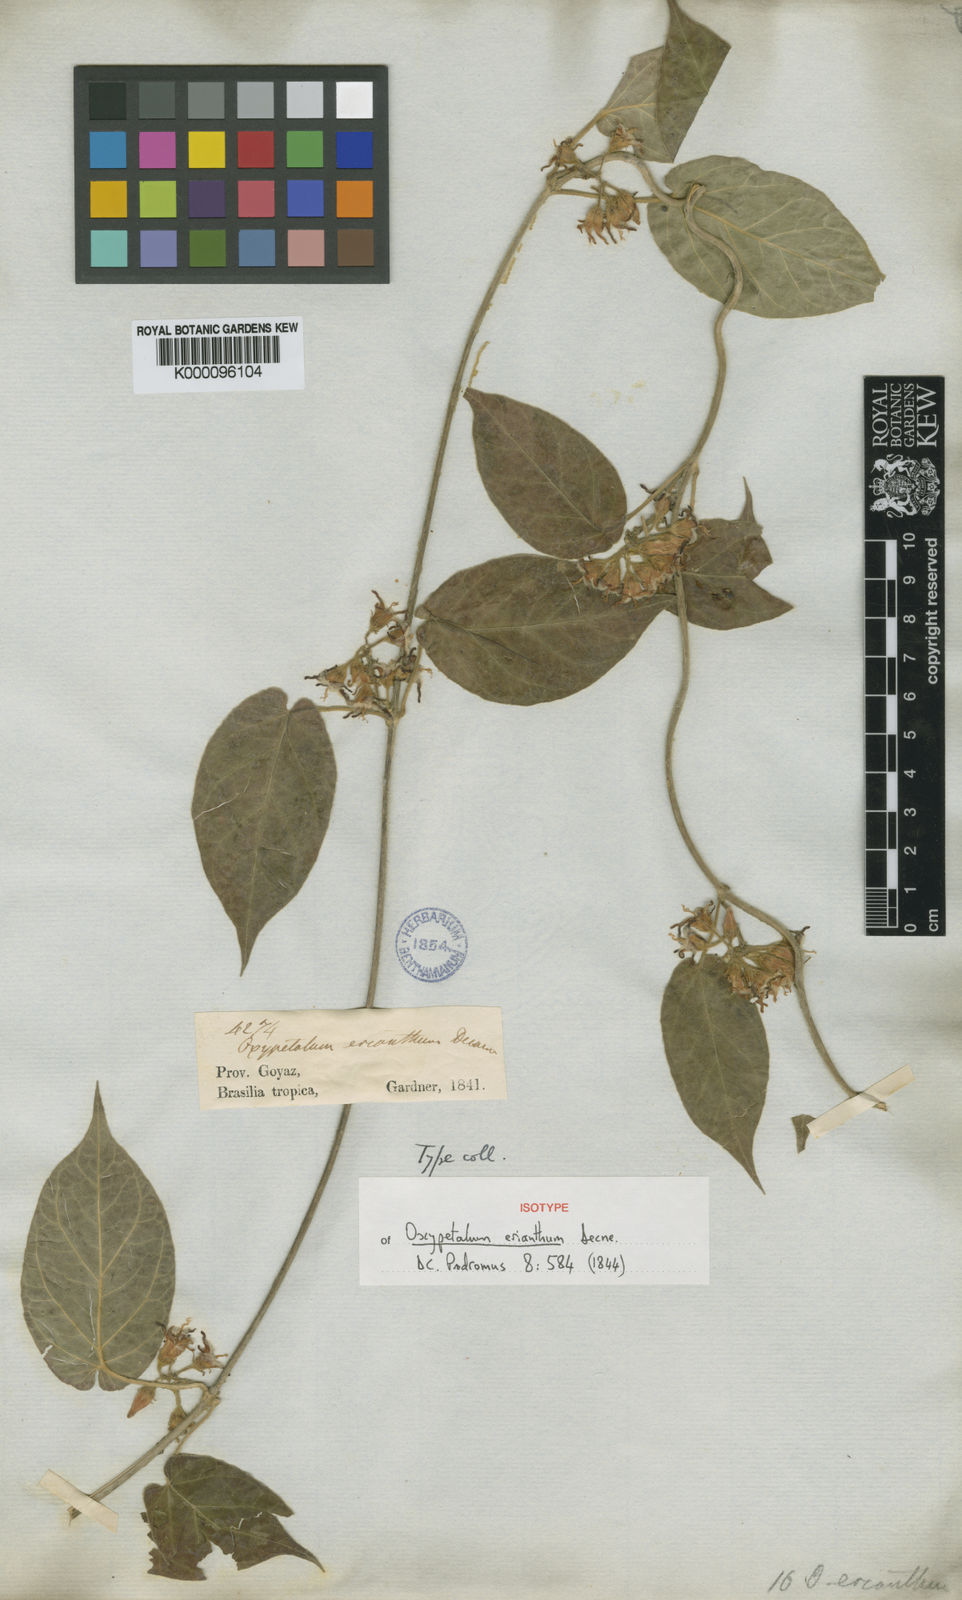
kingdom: Plantae
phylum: Tracheophyta
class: Magnoliopsida
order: Gentianales
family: Apocynaceae
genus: Oxypetalum
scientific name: Oxypetalum erianthum
